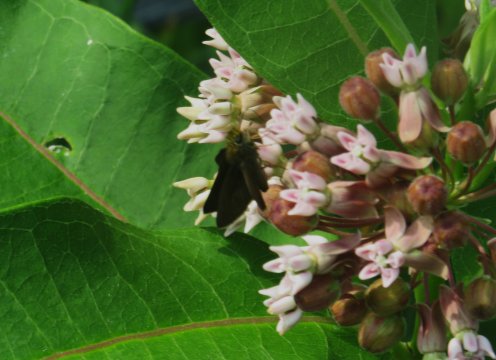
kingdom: Animalia
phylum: Arthropoda
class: Insecta
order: Lepidoptera
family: Hesperiidae
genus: Euphyes
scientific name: Euphyes vestris
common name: Dun Skipper
